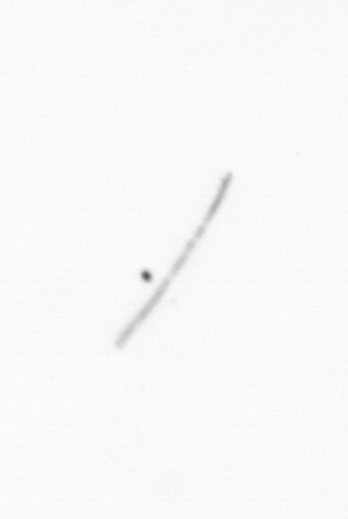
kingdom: Chromista
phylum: Ochrophyta
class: Bacillariophyceae
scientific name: Bacillariophyceae
